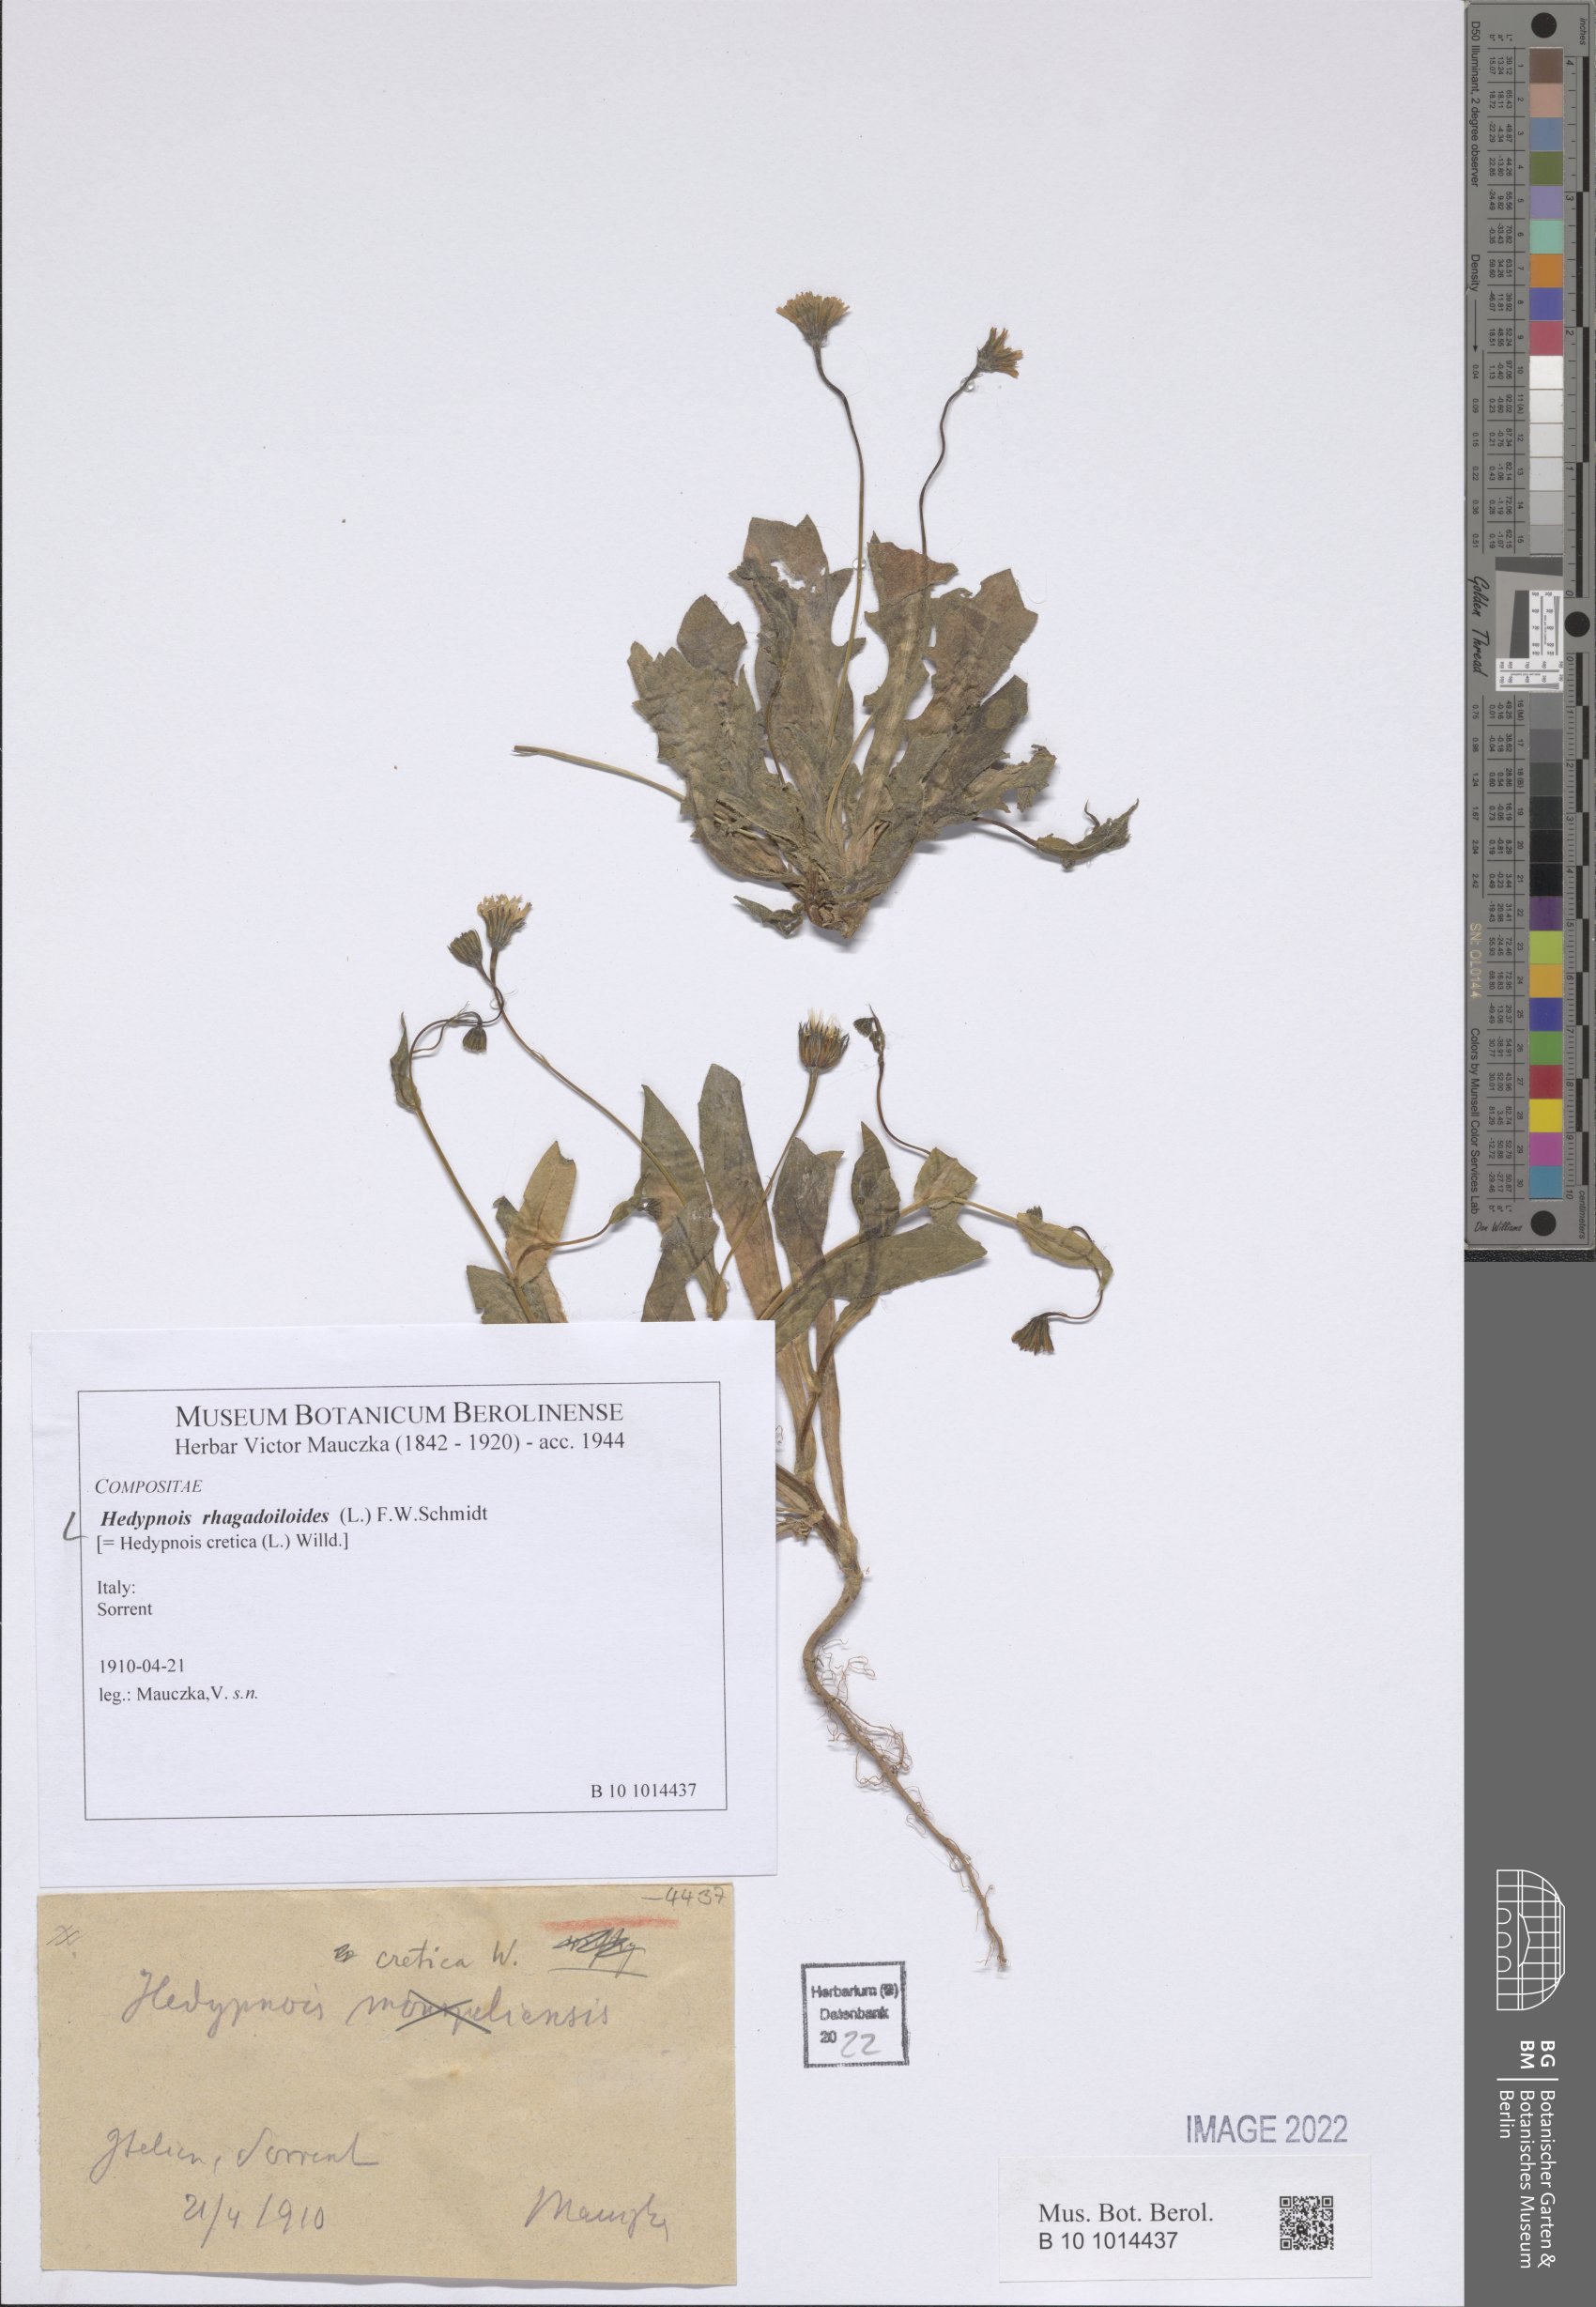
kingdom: Plantae
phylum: Tracheophyta
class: Magnoliopsida
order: Asterales
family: Asteraceae
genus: Hedypnois
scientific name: Hedypnois rhagadioloides
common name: Cretan weed
